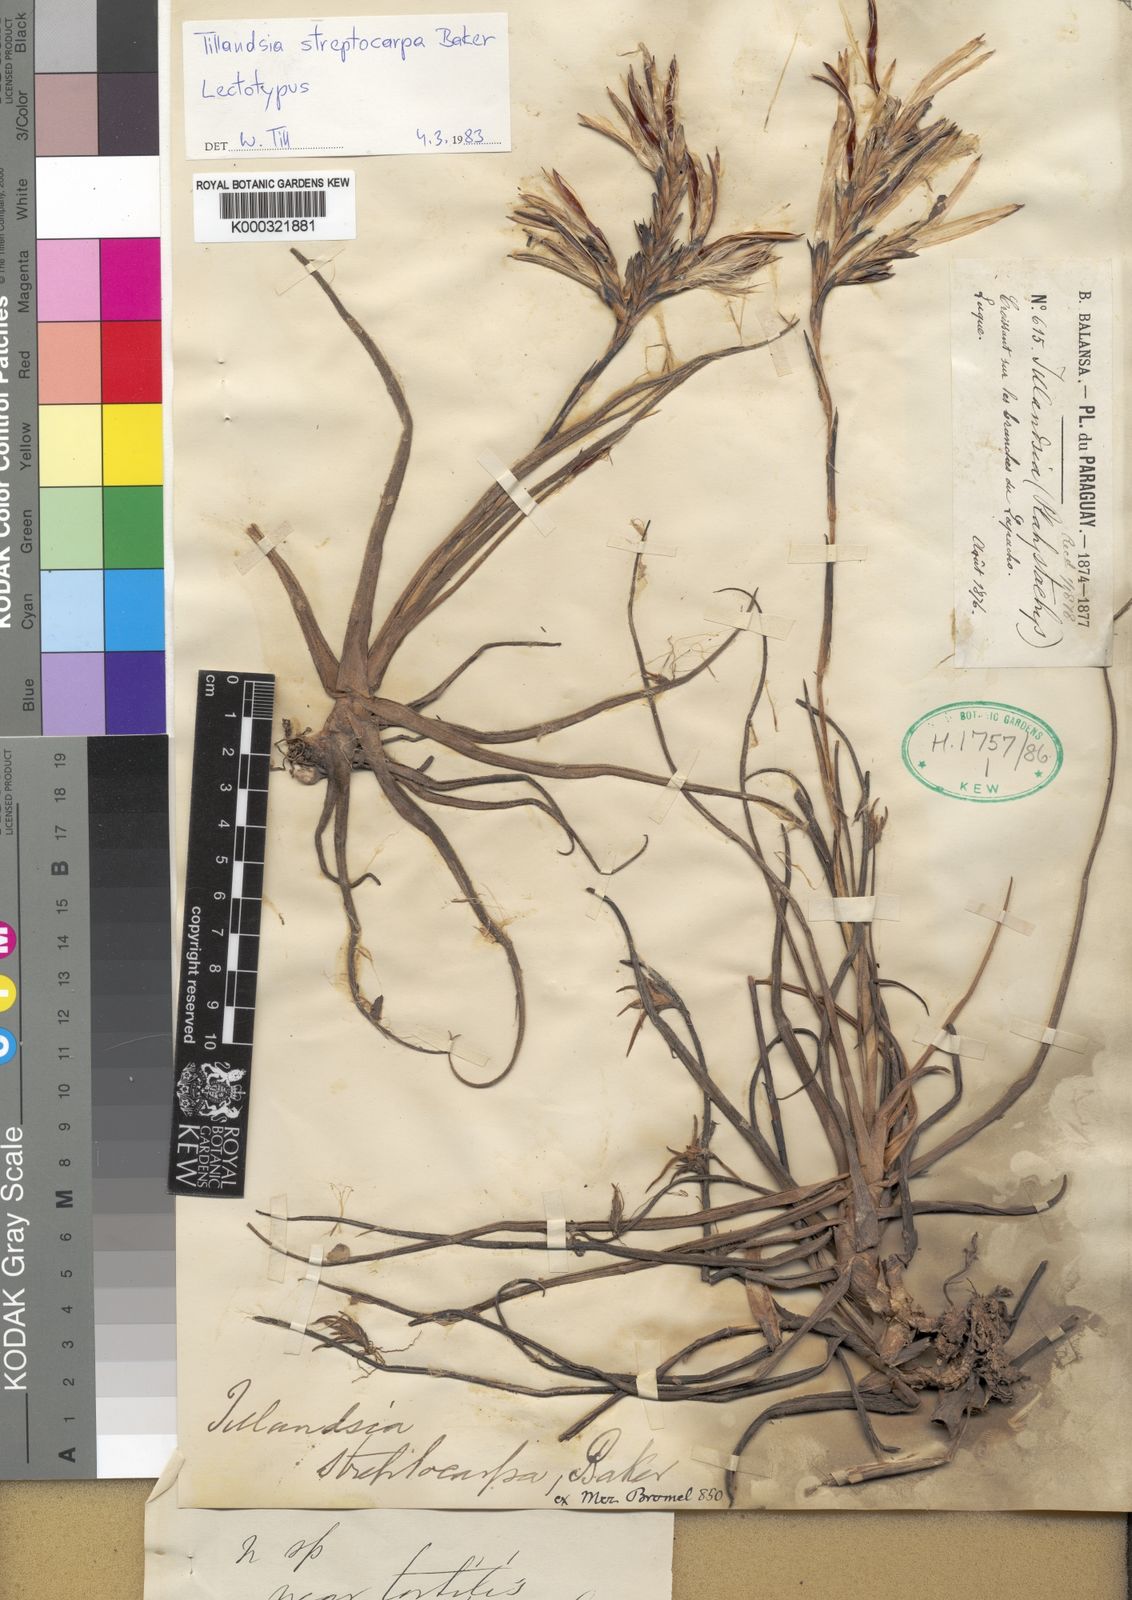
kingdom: Plantae
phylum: Tracheophyta
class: Liliopsida
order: Poales
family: Bromeliaceae
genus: Tillandsia
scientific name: Tillandsia streptocarpa
